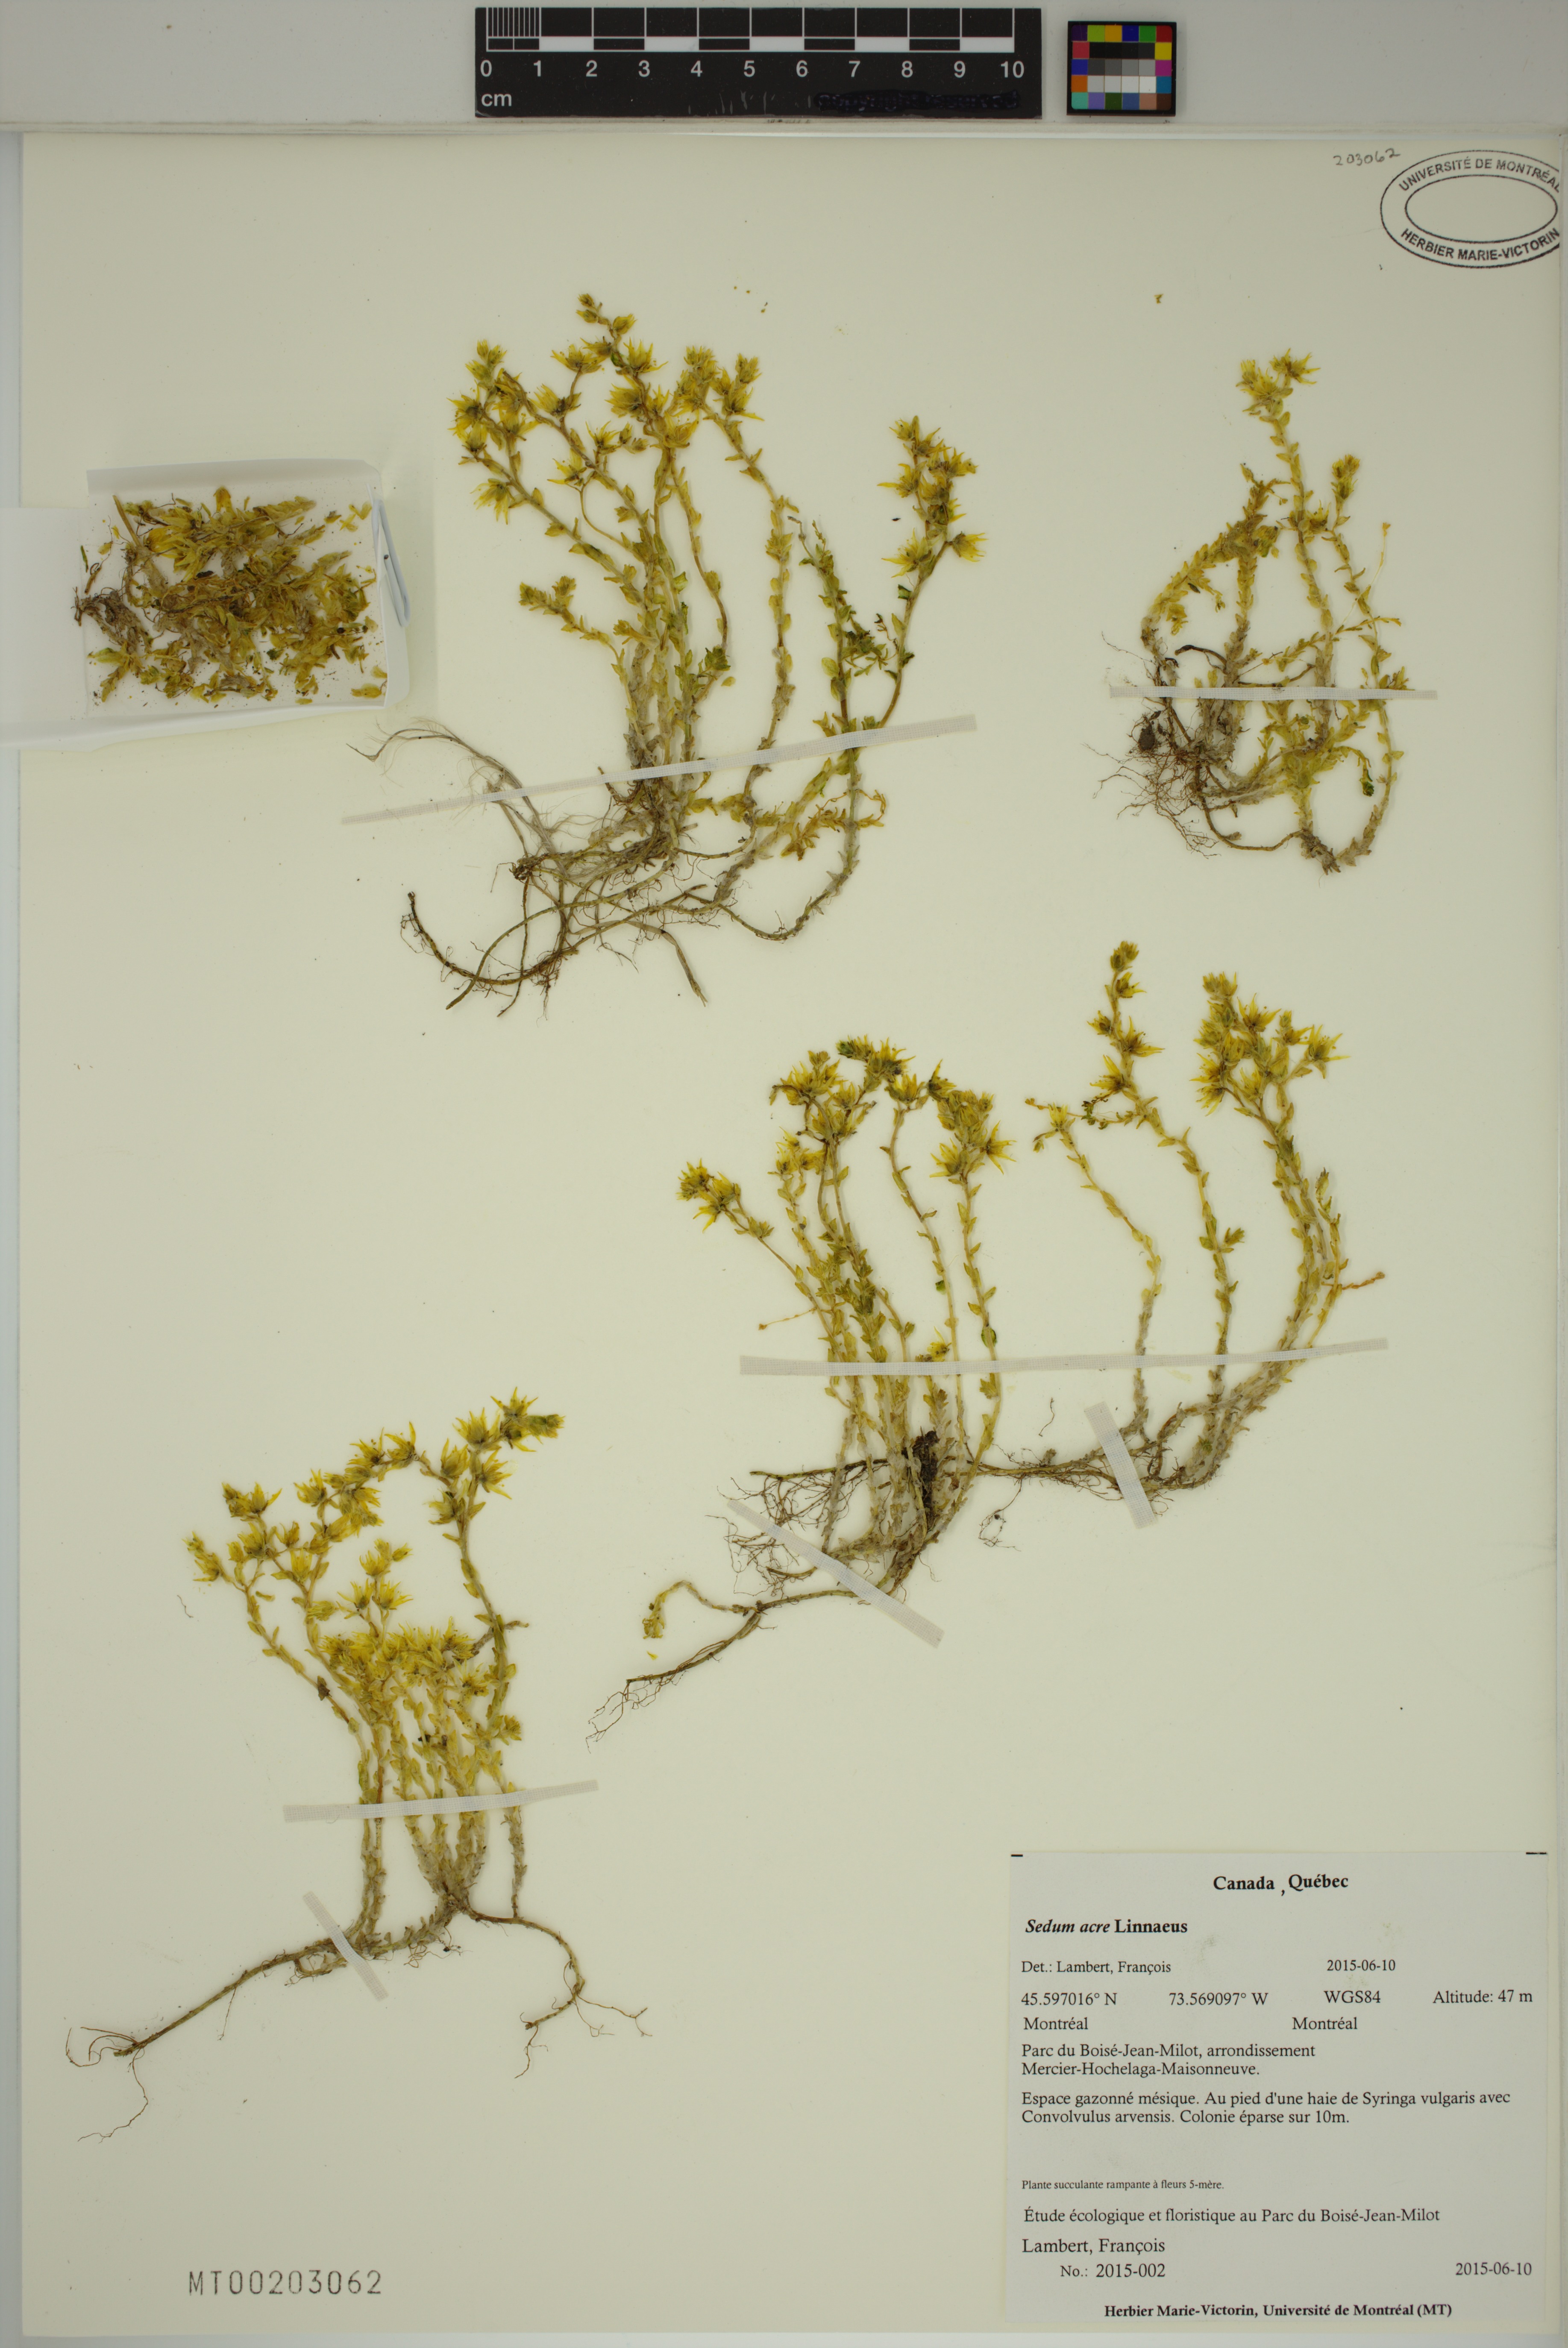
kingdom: Plantae
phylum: Tracheophyta
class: Magnoliopsida
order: Saxifragales
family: Crassulaceae
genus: Sedum
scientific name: Sedum acre
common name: Biting stonecrop
